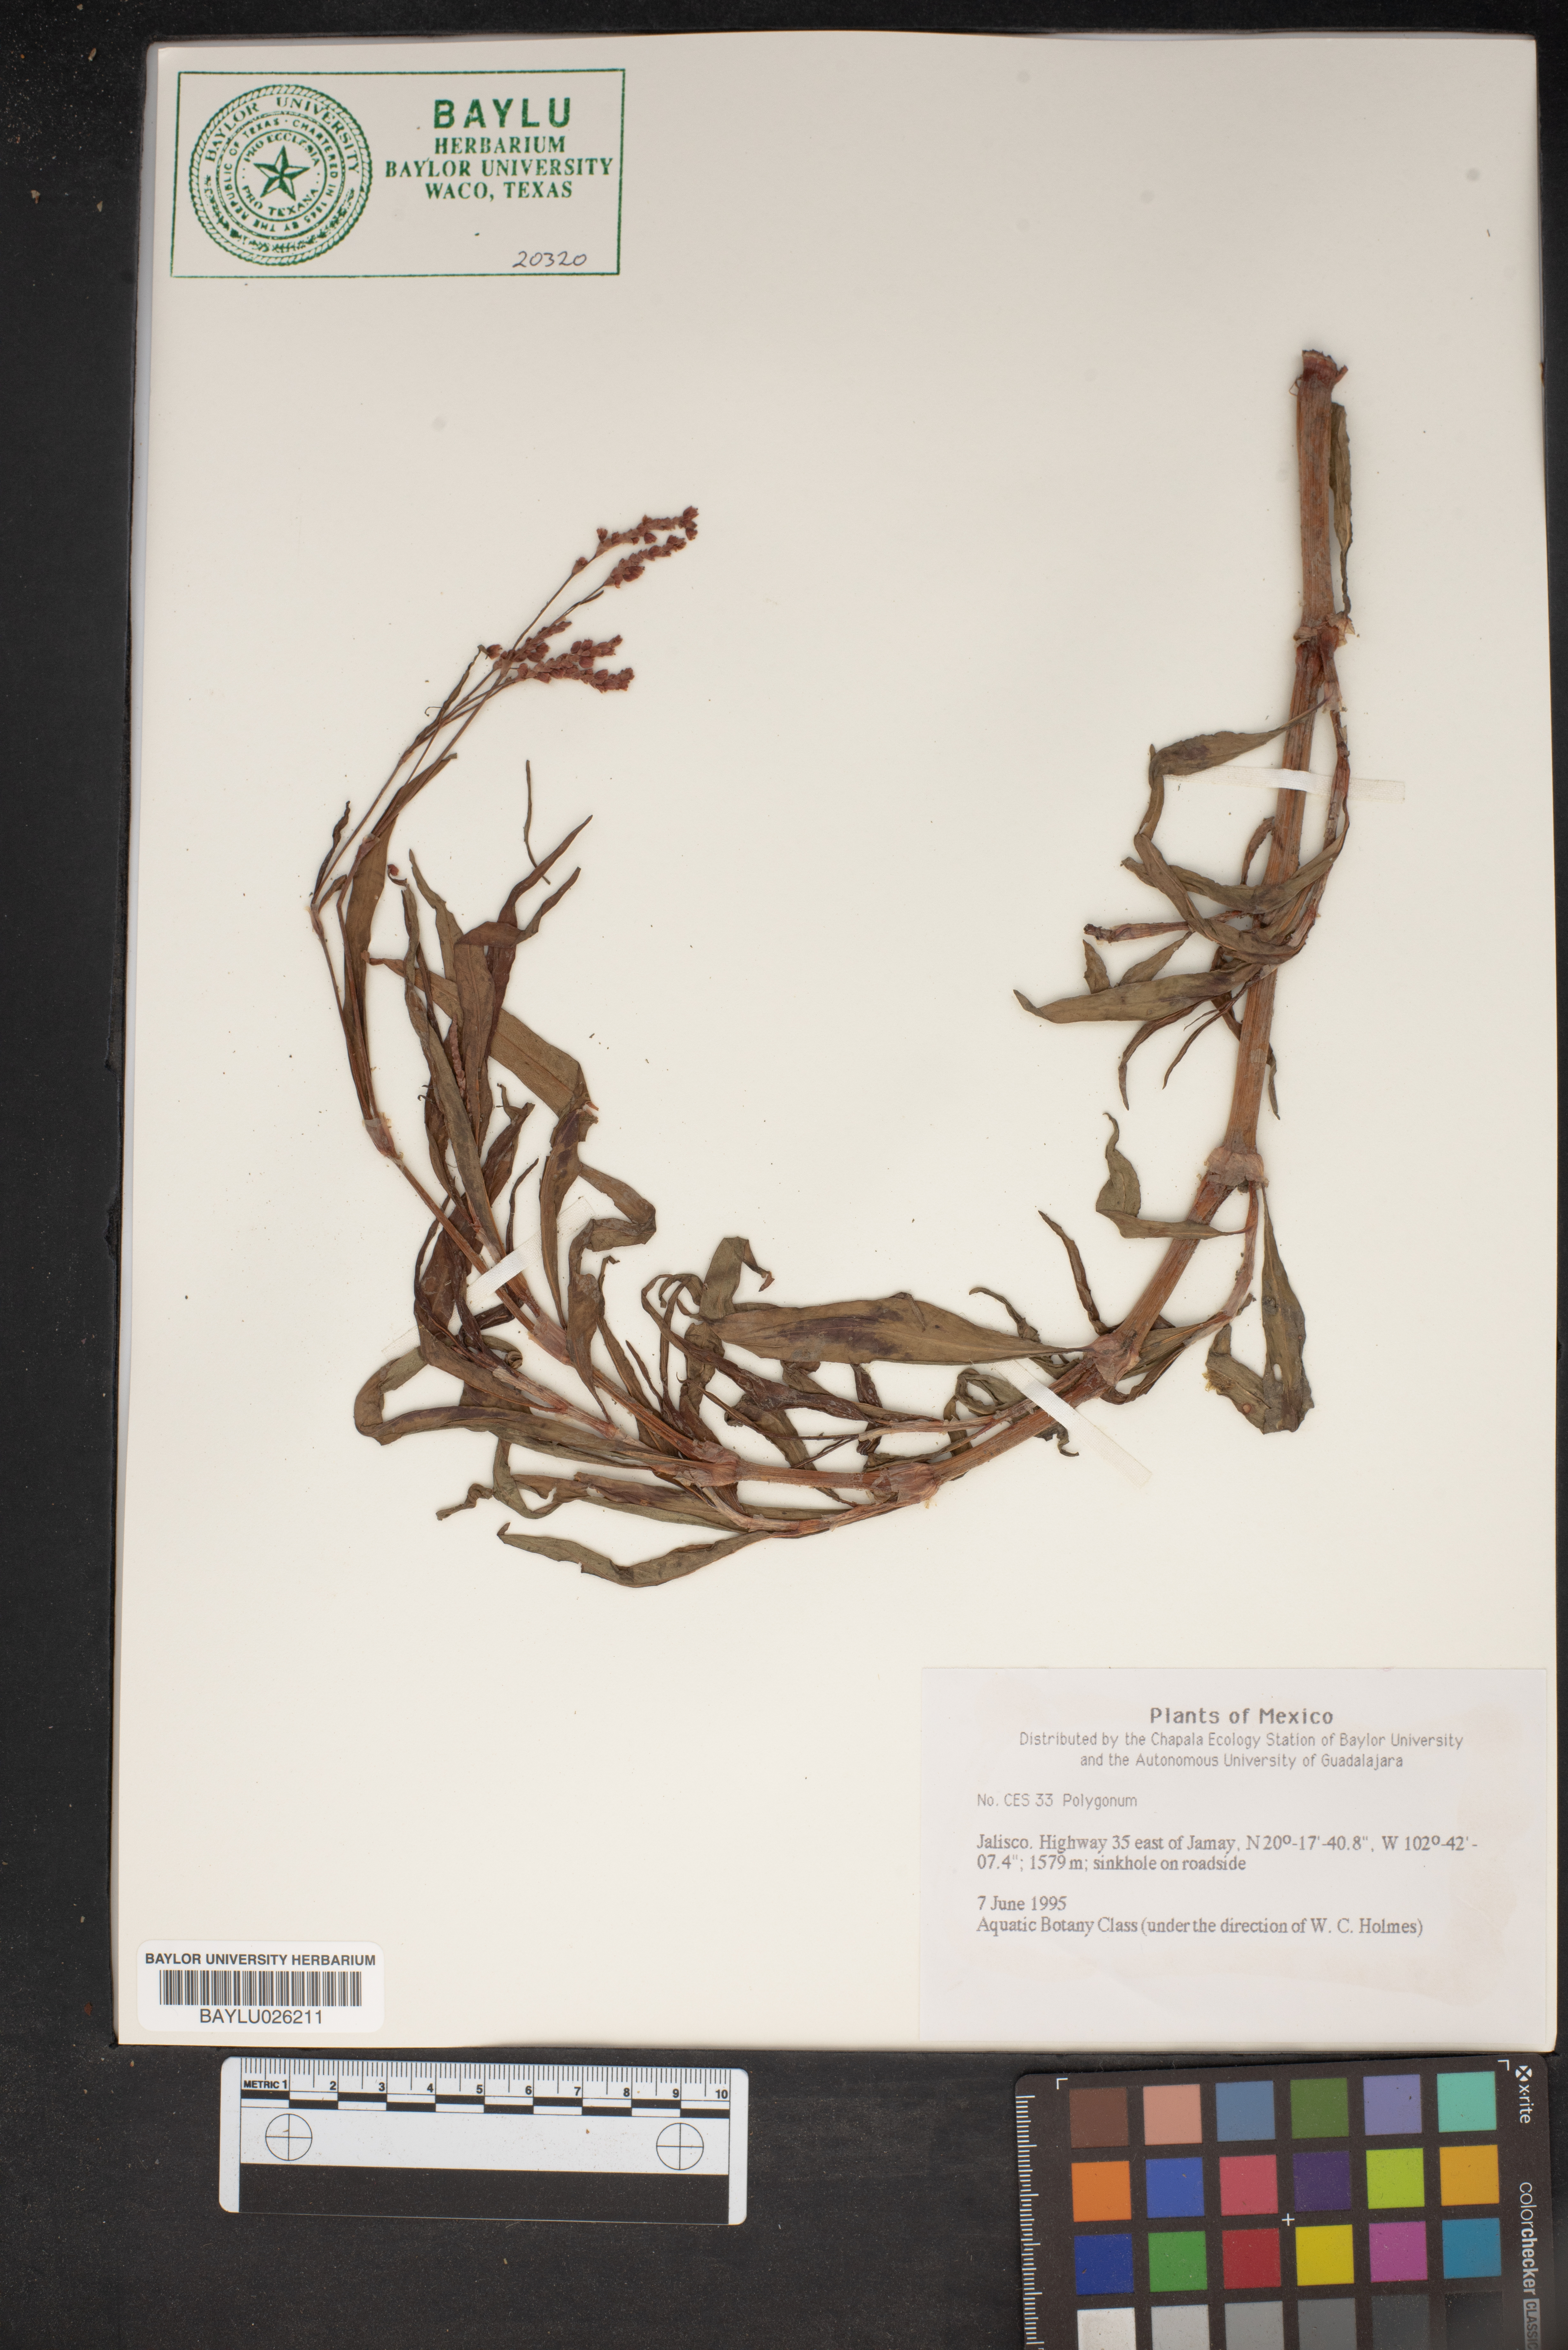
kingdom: Plantae
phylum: Tracheophyta
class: Magnoliopsida
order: Caryophyllales
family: Polygonaceae
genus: Polygonum
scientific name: Polygonum
